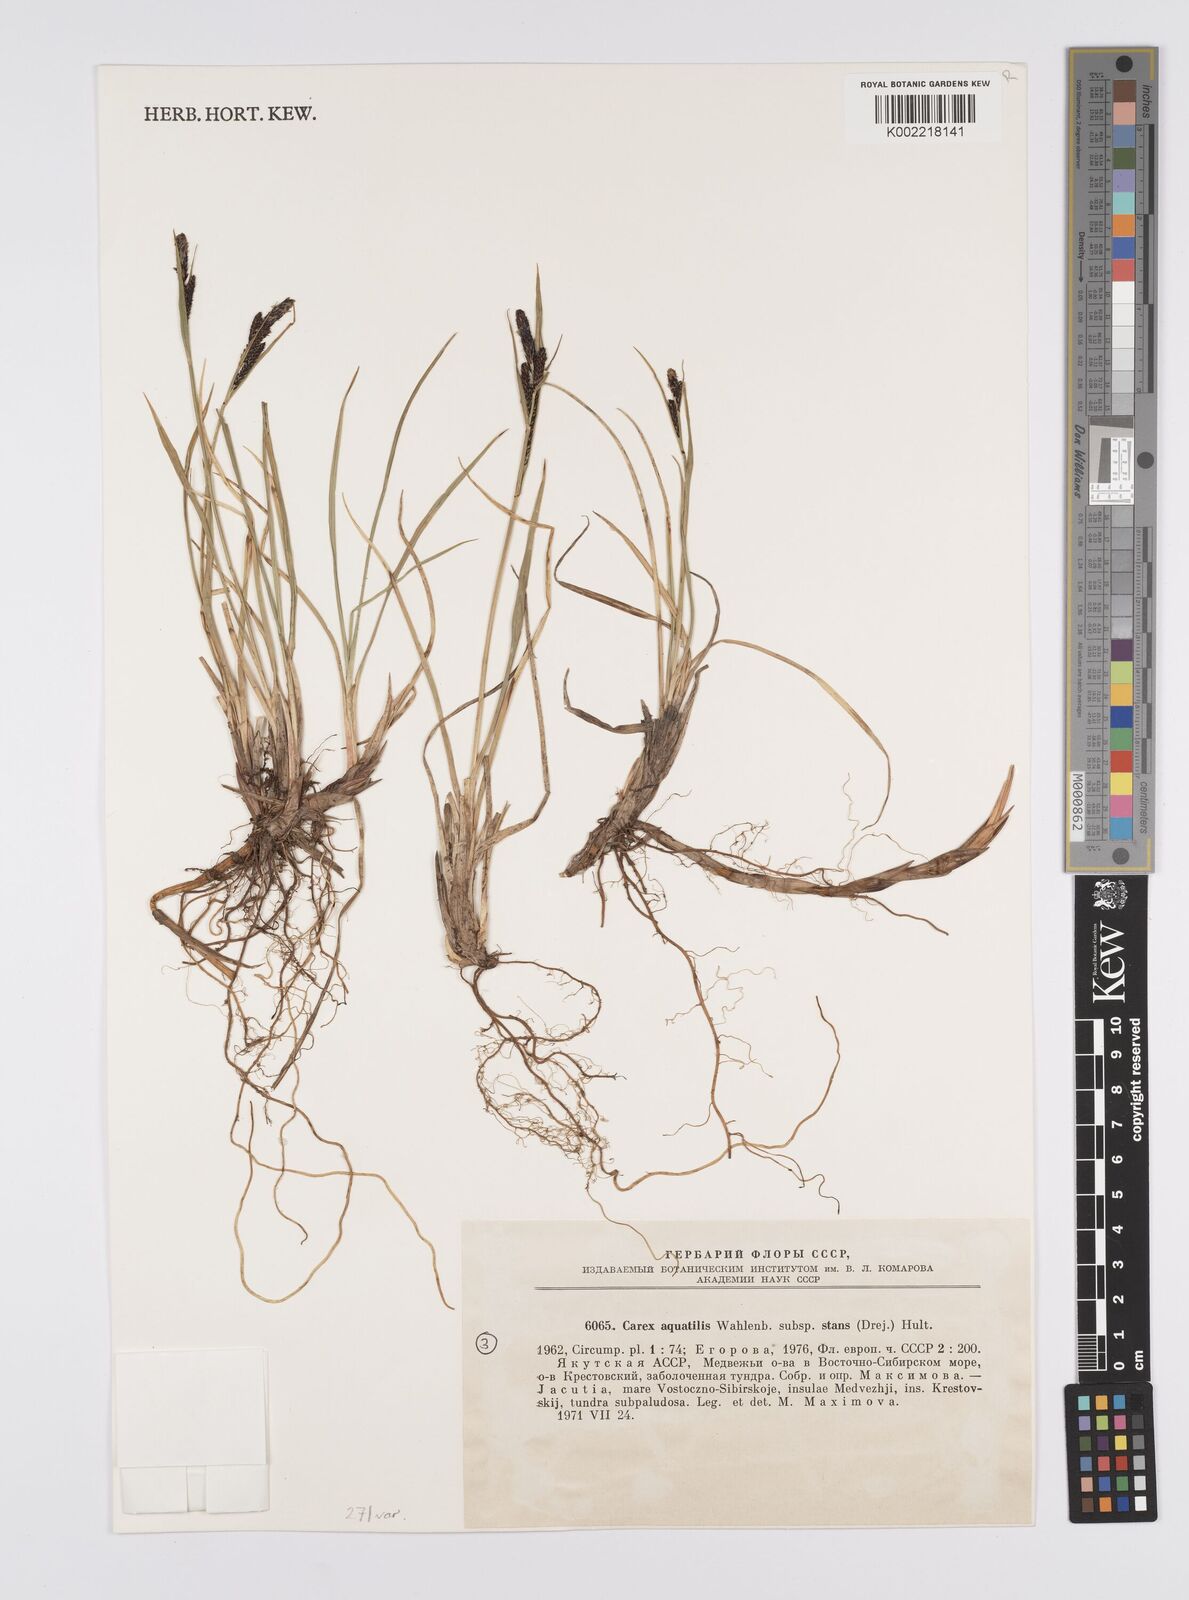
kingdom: Plantae
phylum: Tracheophyta
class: Liliopsida
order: Poales
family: Cyperaceae
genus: Carex
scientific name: Carex aquatilis
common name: Water sedge
